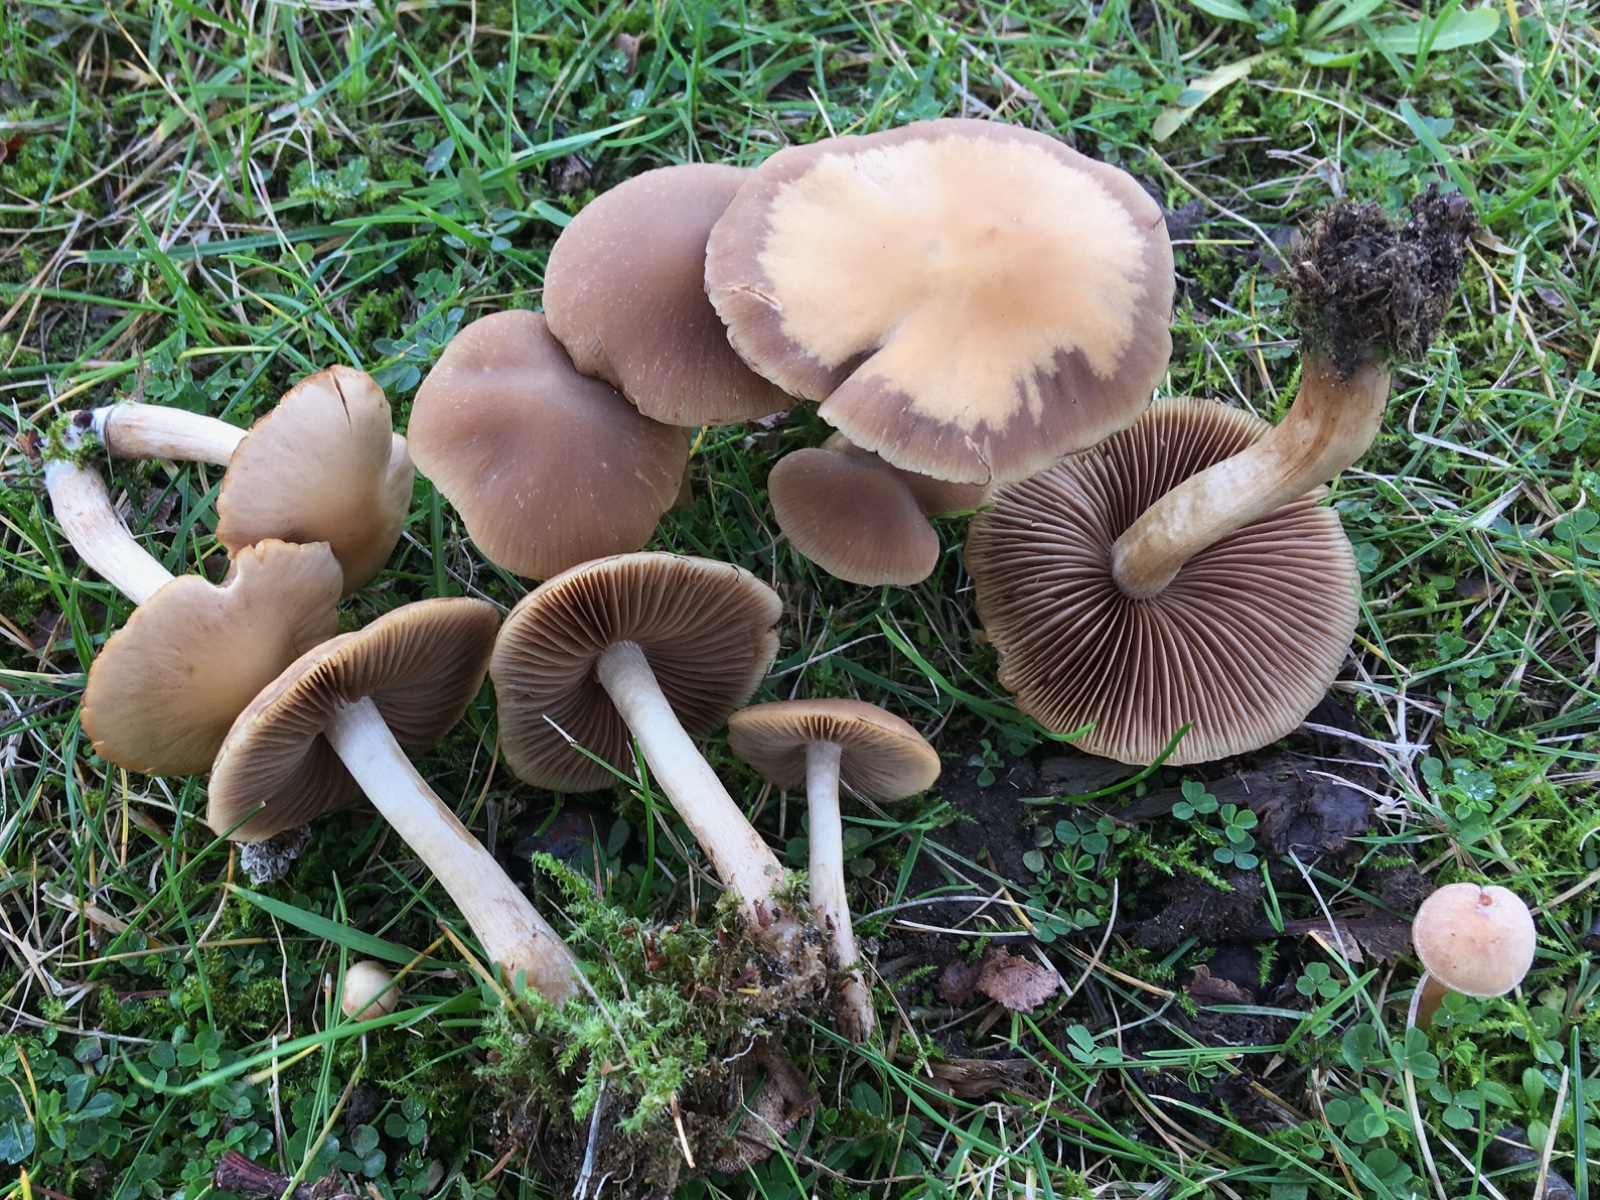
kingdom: Fungi
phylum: Basidiomycota
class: Agaricomycetes
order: Agaricales
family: Psathyrellaceae
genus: Psathyrella
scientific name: Psathyrella
